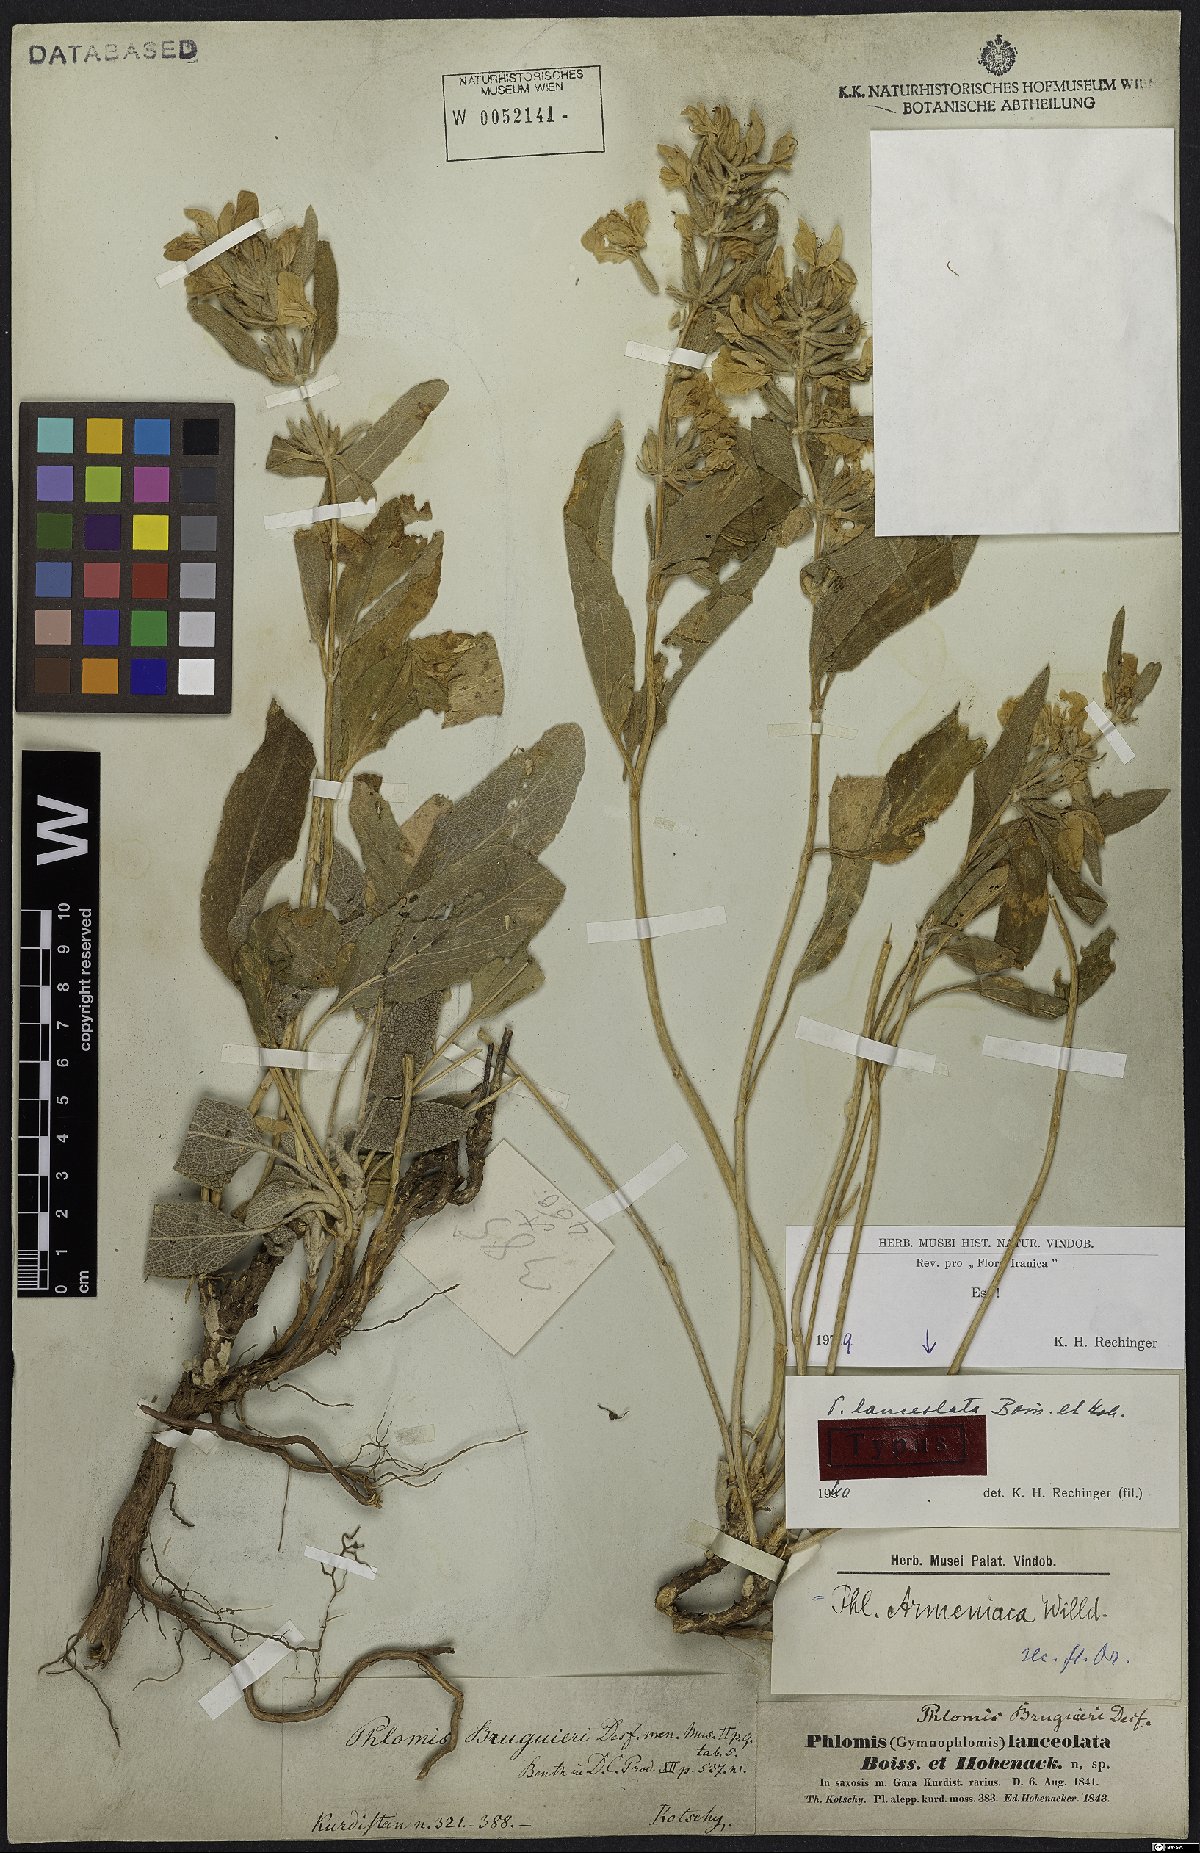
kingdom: Plantae
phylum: Tracheophyta
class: Magnoliopsida
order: Lamiales
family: Lamiaceae
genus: Phlomis
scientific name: Phlomis lanceolata
